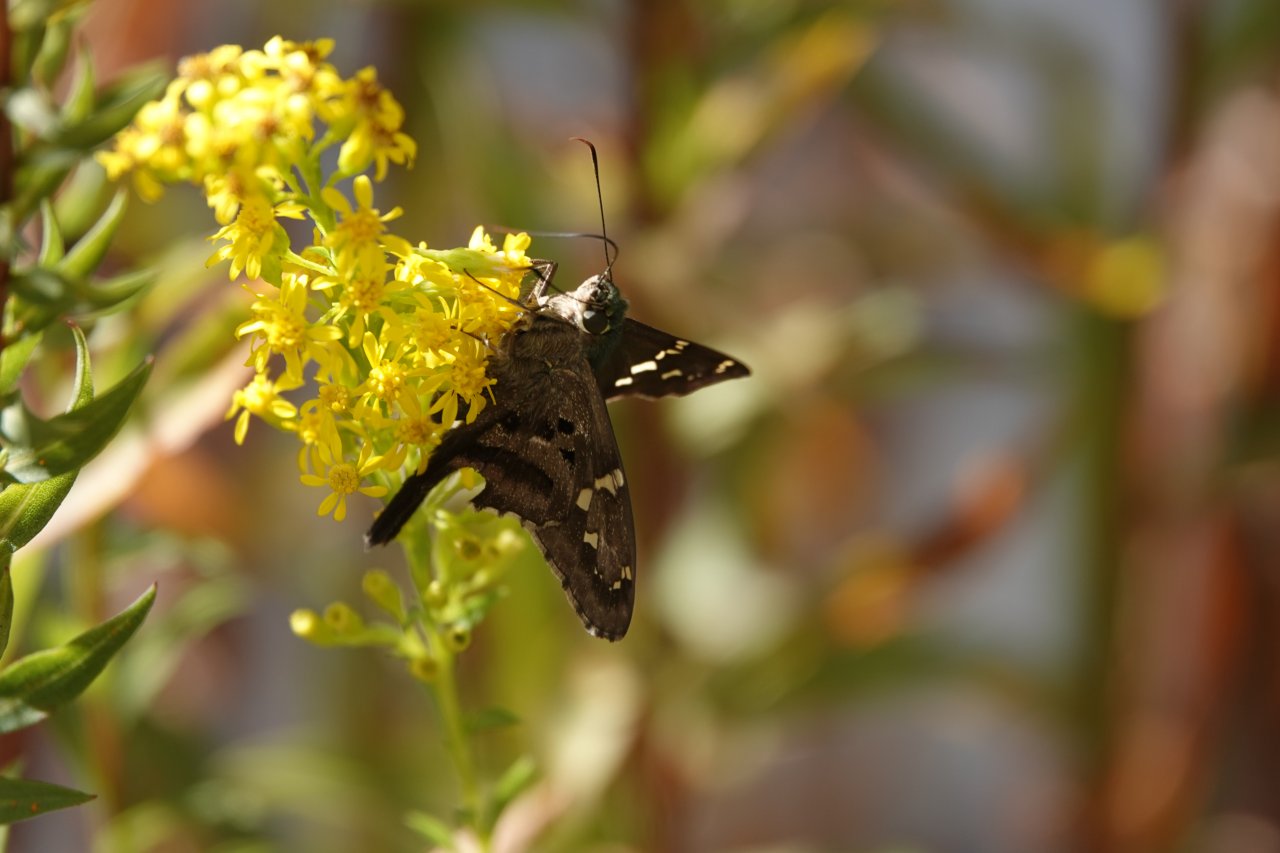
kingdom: Animalia
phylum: Arthropoda
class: Insecta
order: Lepidoptera
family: Hesperiidae
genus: Urbanus
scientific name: Urbanus proteus
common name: Long-tailed Skipper
